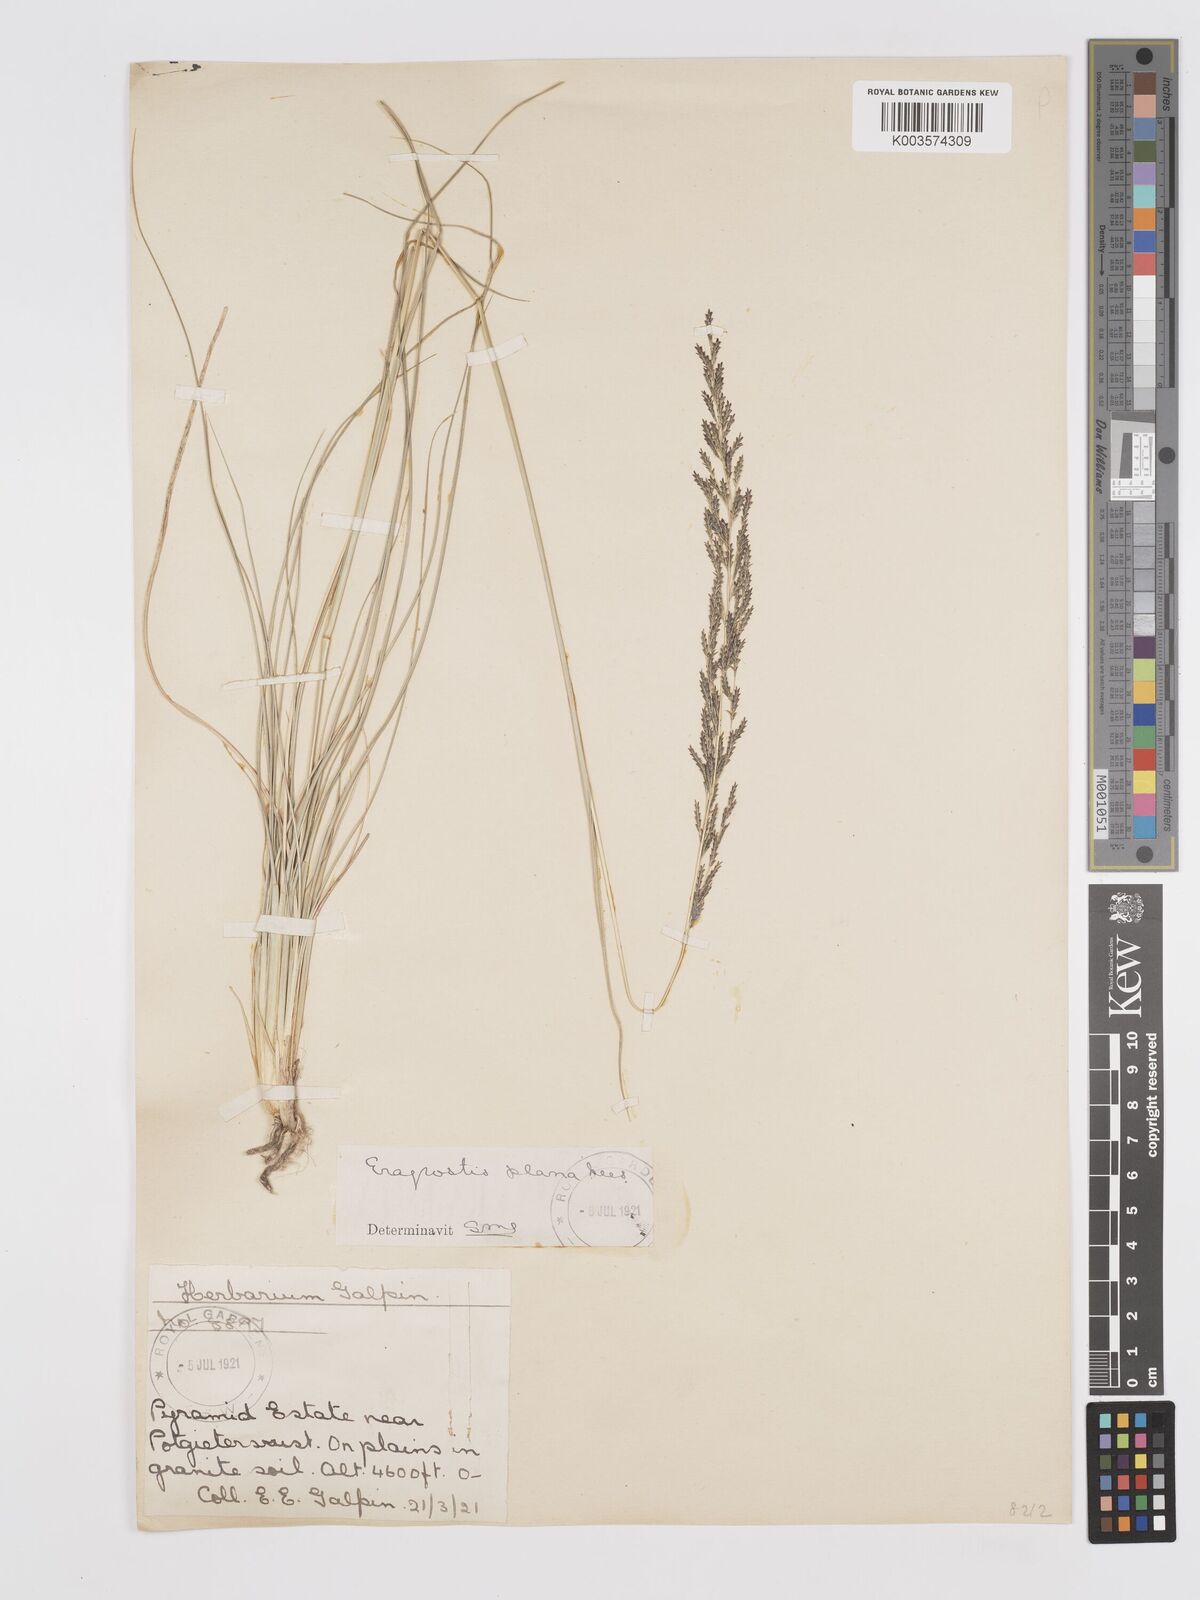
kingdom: Plantae
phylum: Tracheophyta
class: Liliopsida
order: Poales
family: Poaceae
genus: Eragrostis
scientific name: Eragrostis plana
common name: South african lovegrass
